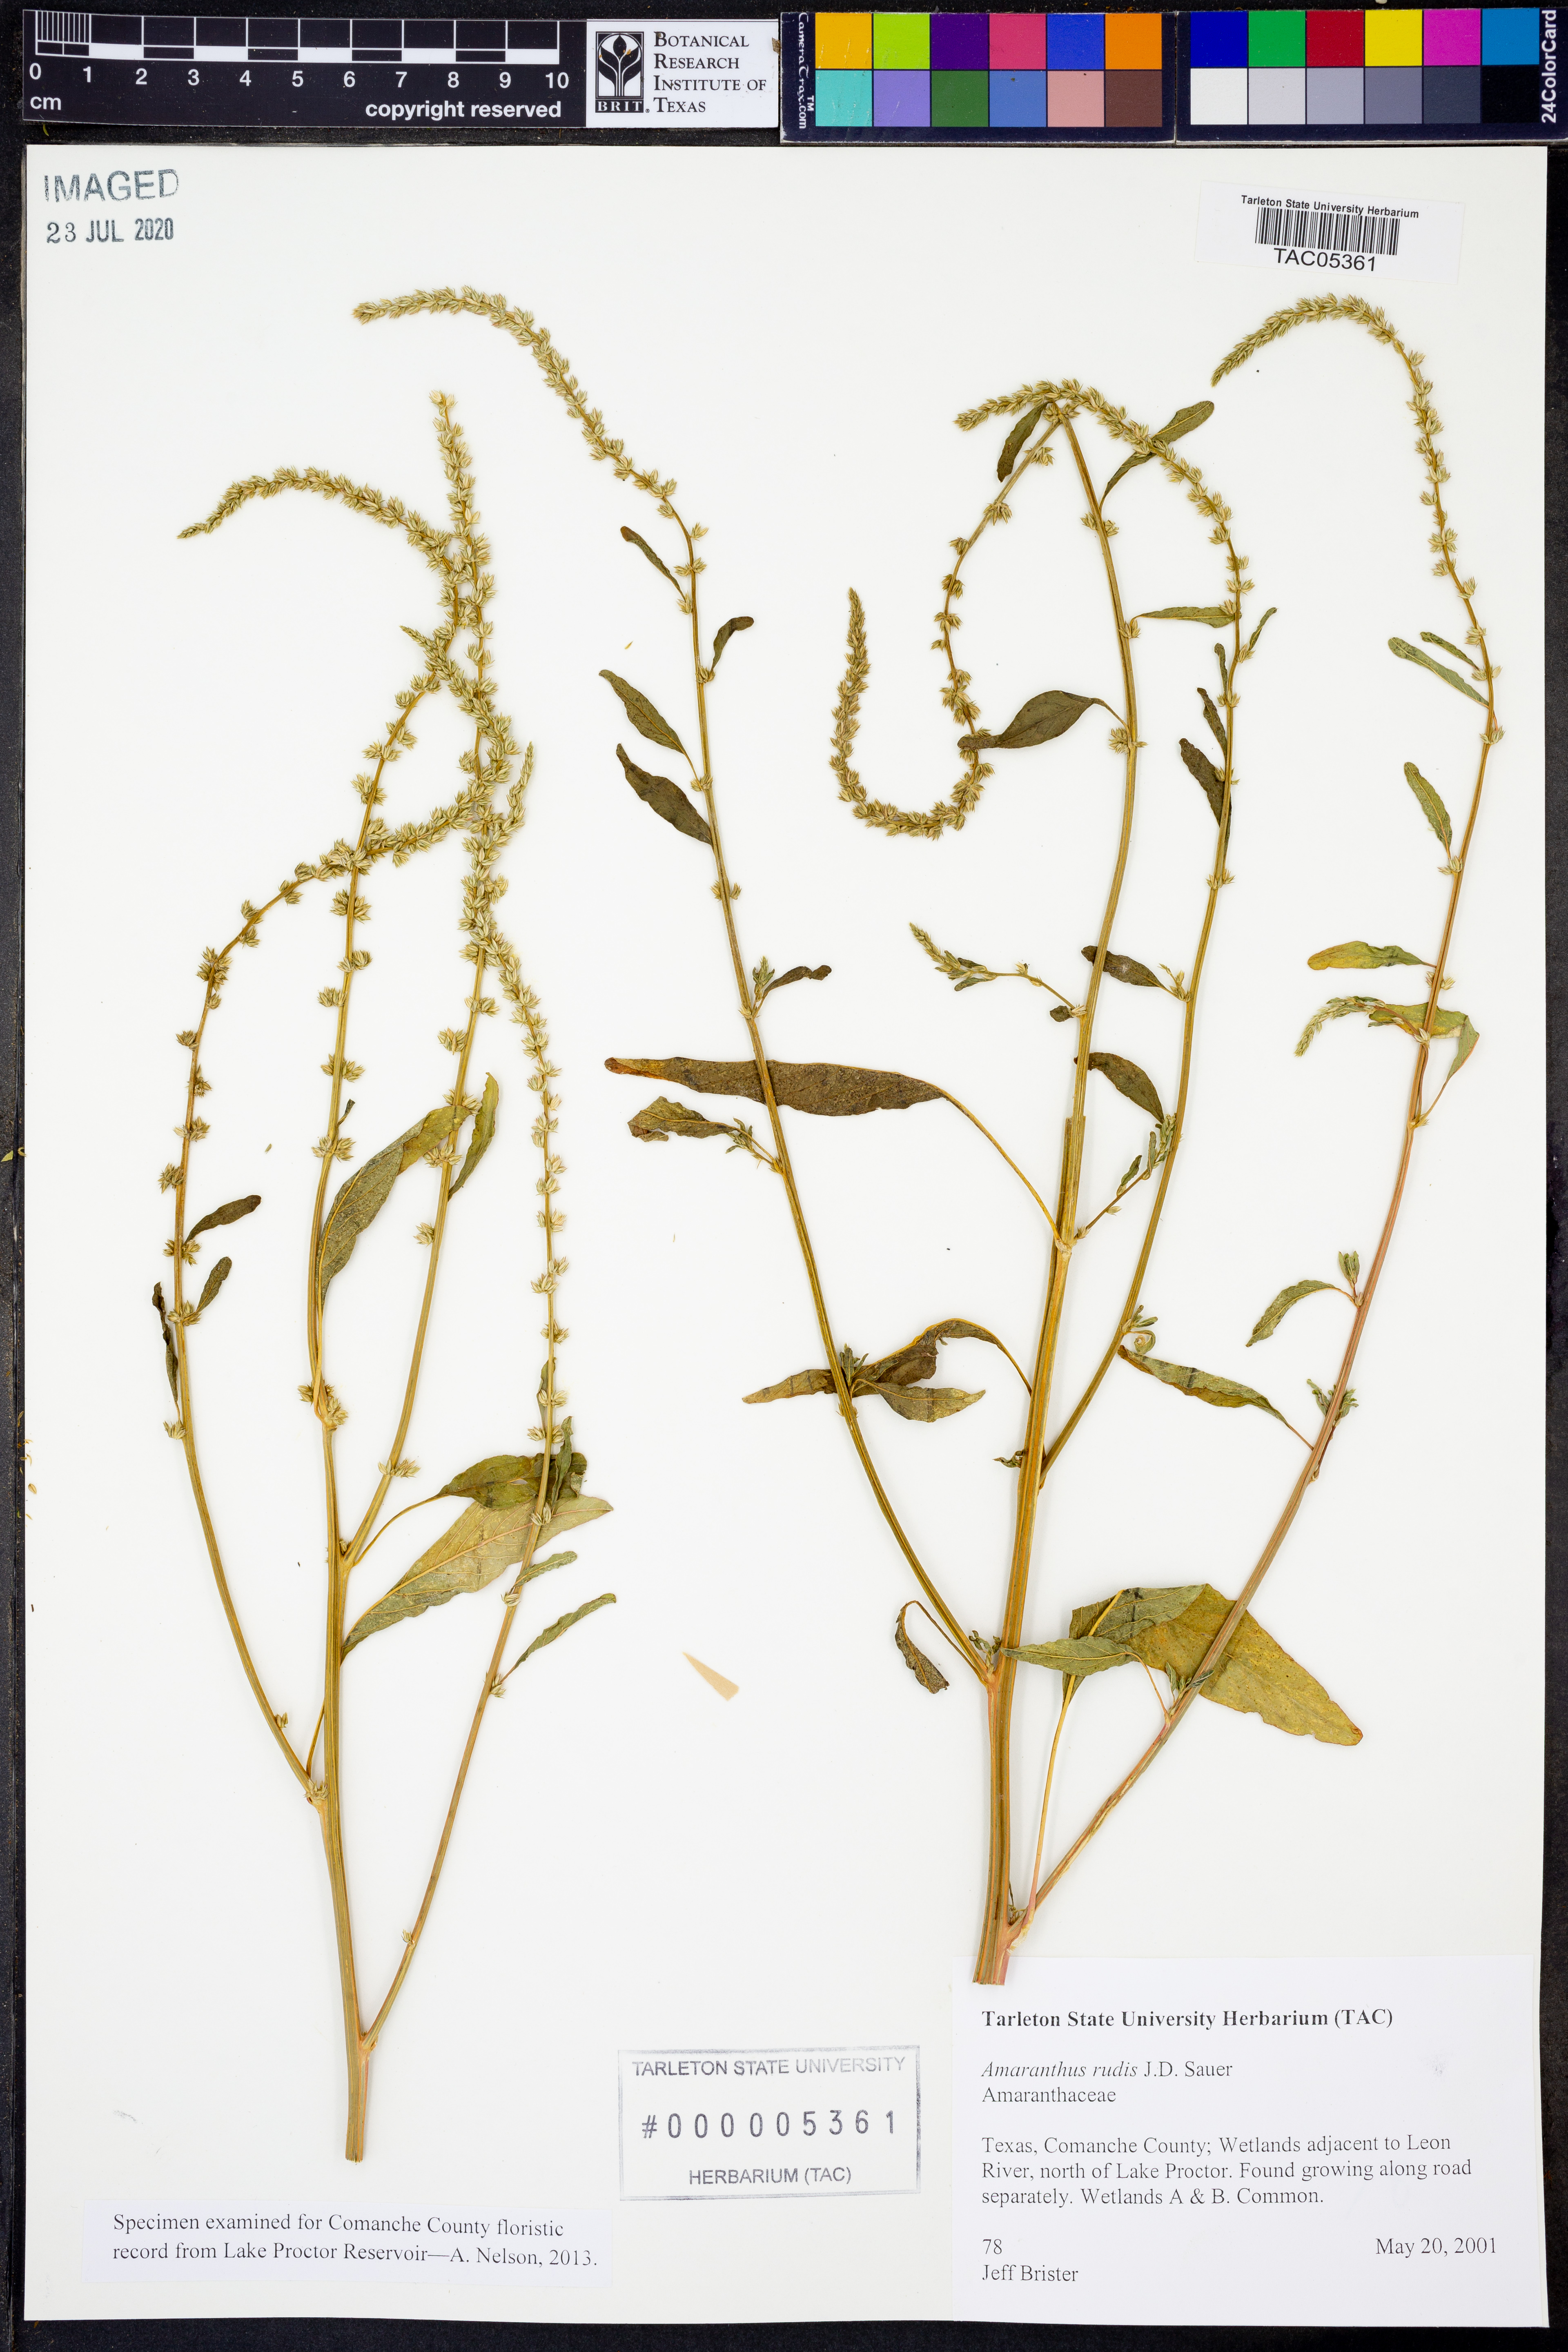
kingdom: Plantae
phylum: Tracheophyta
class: Magnoliopsida
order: Caryophyllales
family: Amaranthaceae
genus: Amaranthus
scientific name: Amaranthus tuberculatus
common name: Rough-fruit amaranth
